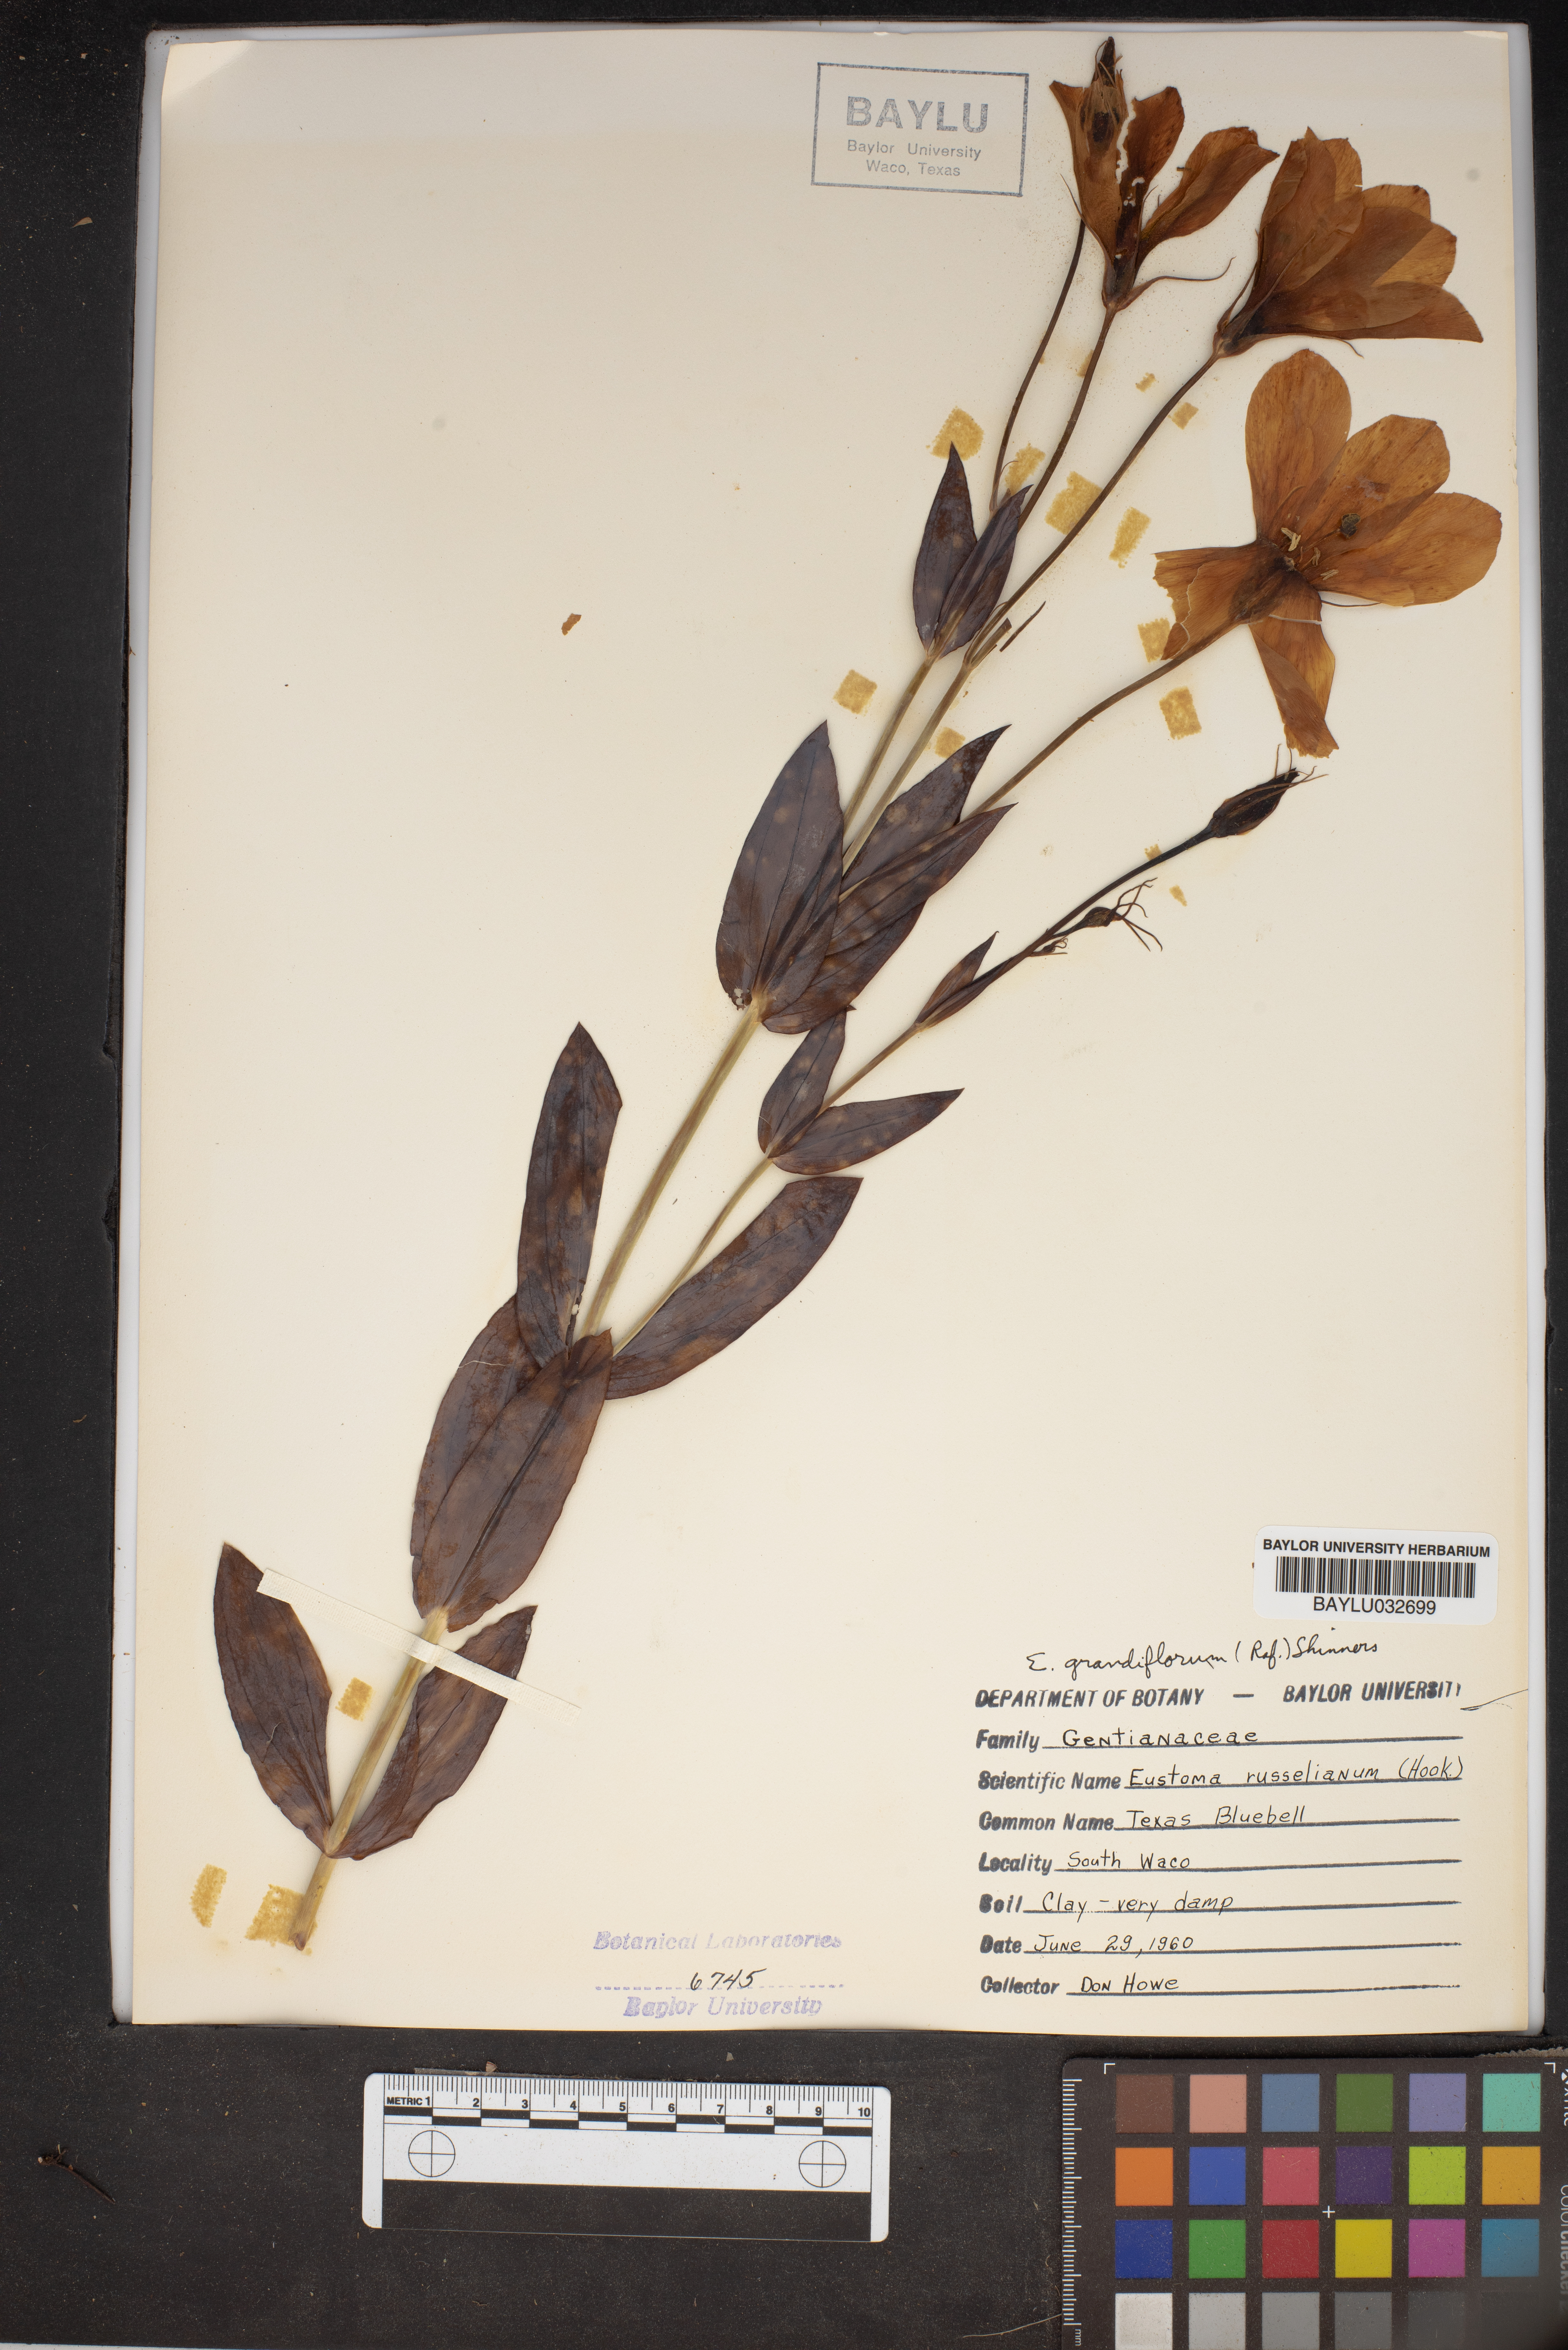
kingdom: Plantae
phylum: Tracheophyta
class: Magnoliopsida
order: Gentianales
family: Gentianaceae
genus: Eustoma
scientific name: Eustoma russellianum
